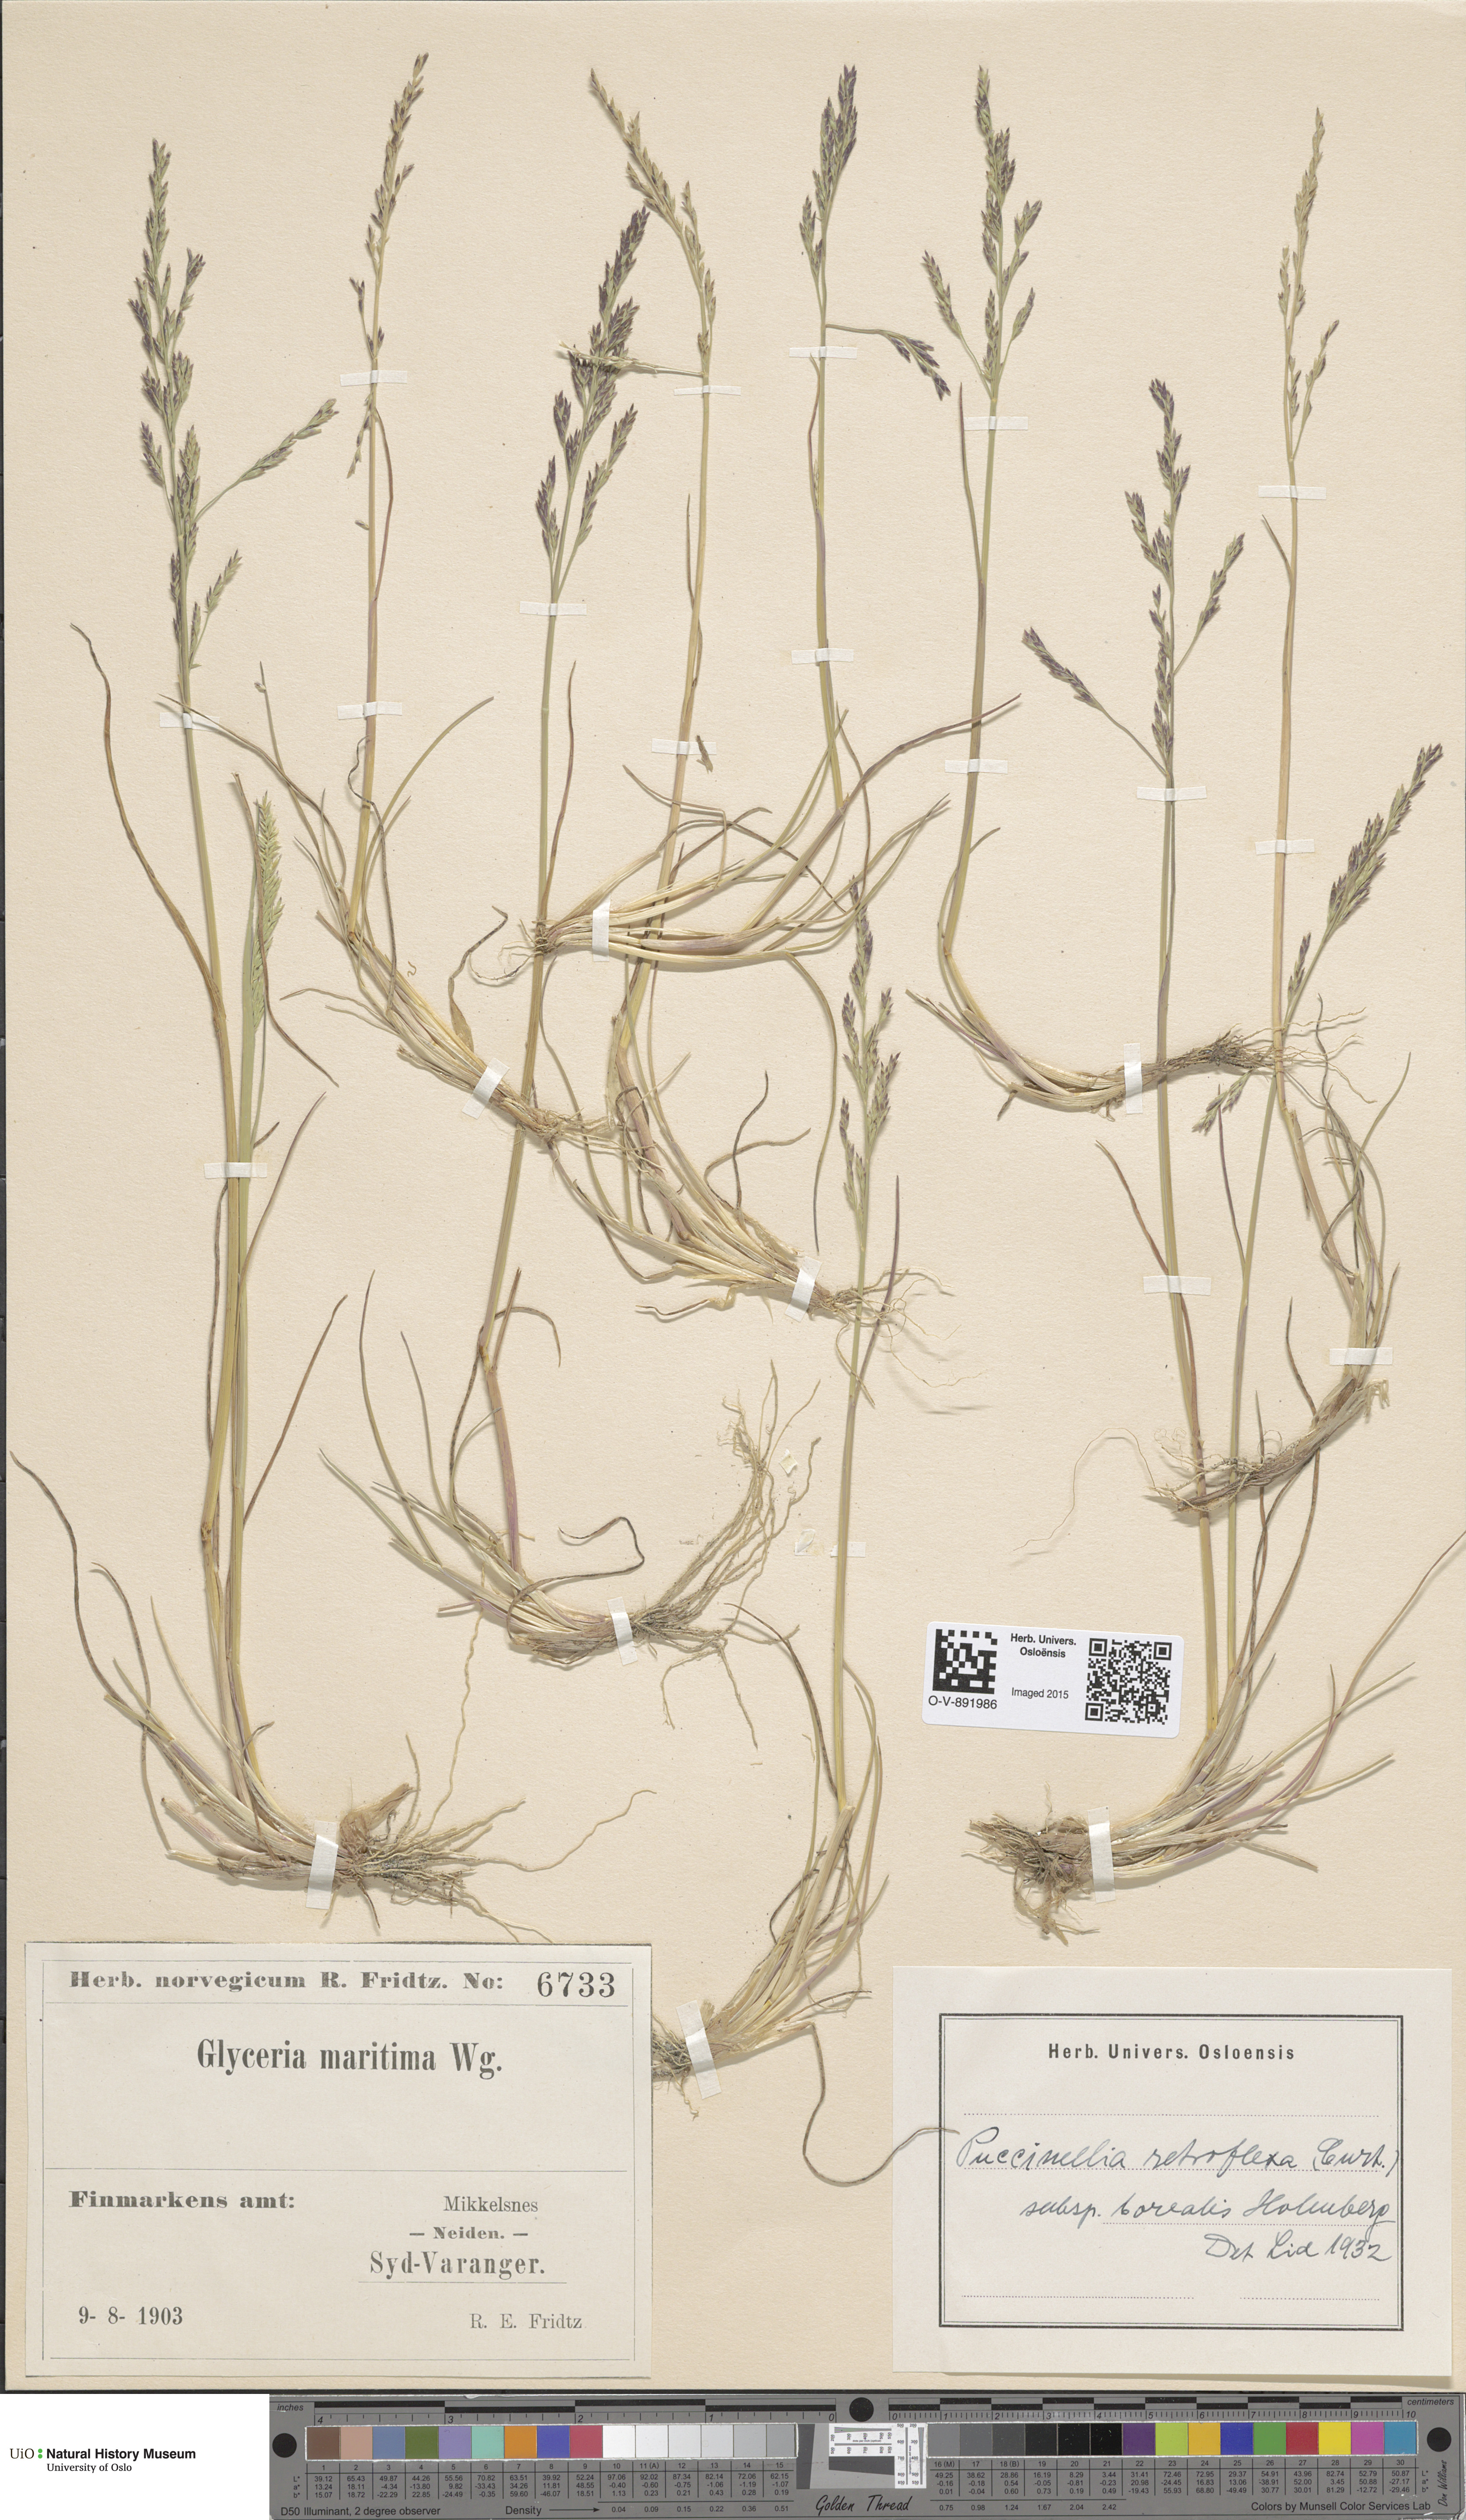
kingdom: Plantae
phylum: Tracheophyta
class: Liliopsida
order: Poales
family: Poaceae
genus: Puccinellia
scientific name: Puccinellia distans
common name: Weeping alkaligrass
